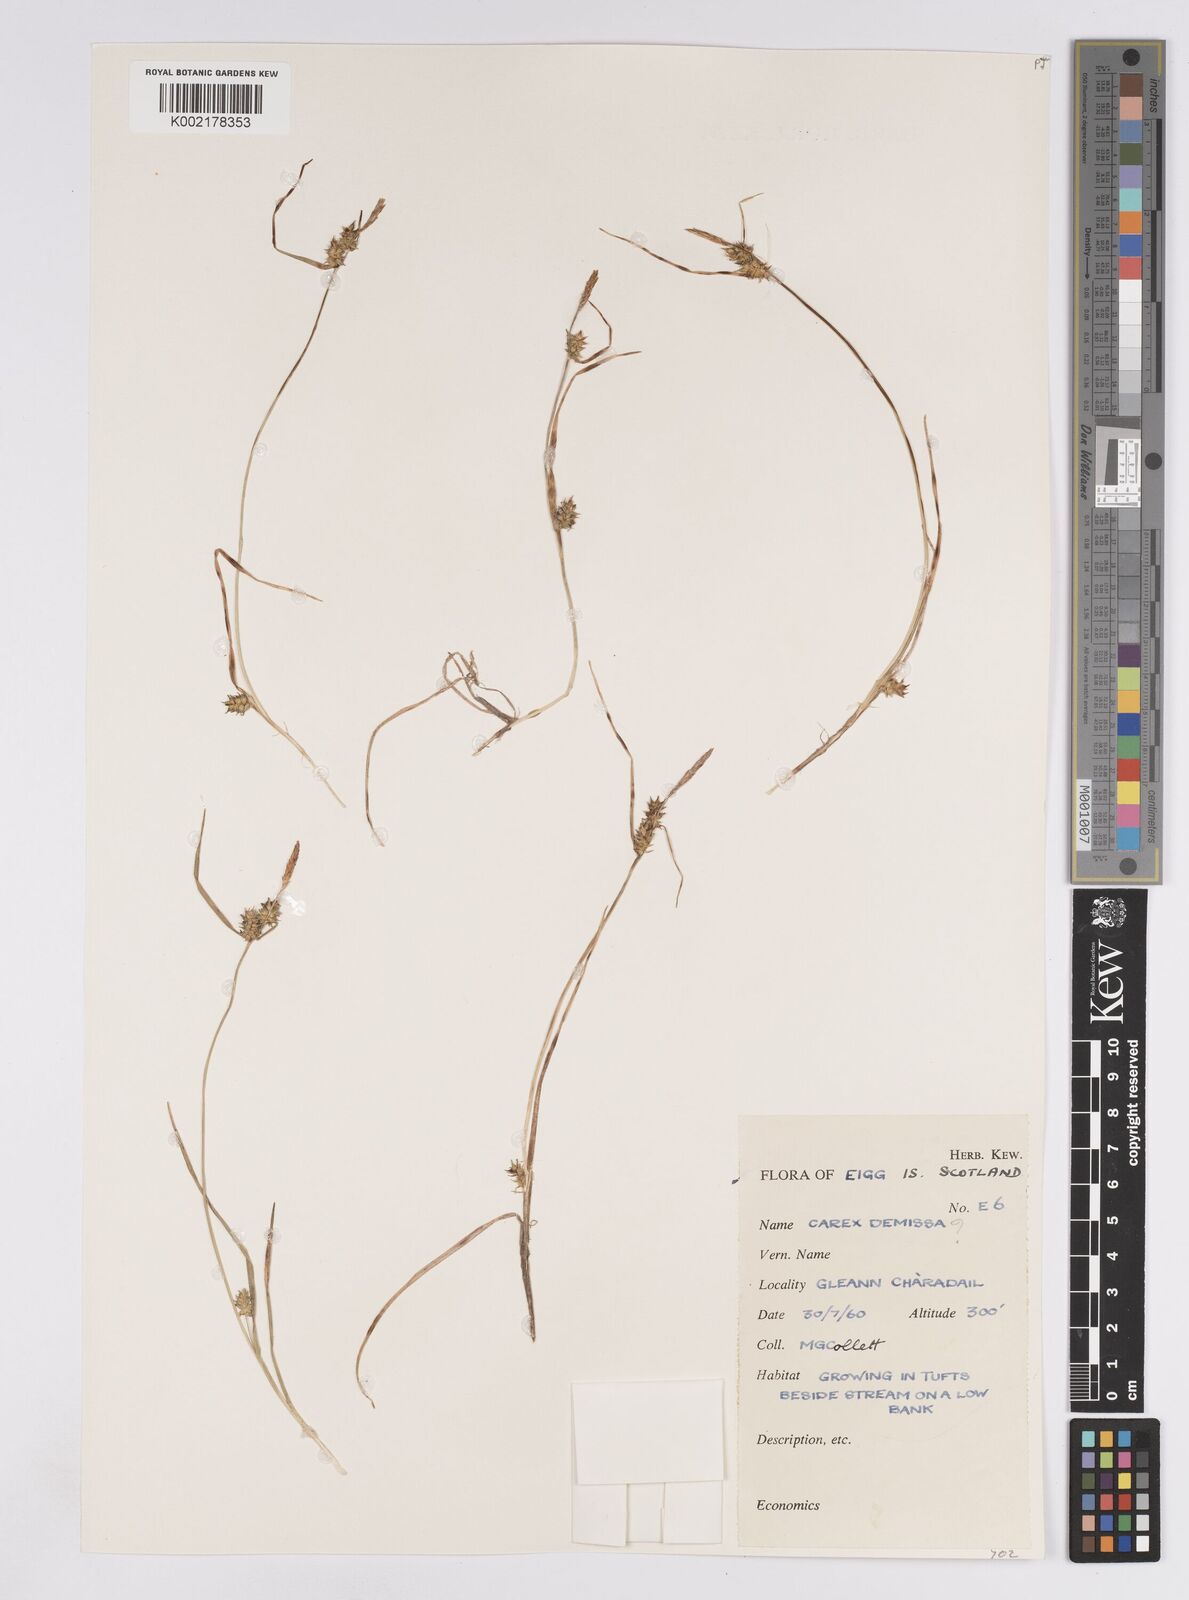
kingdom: Plantae
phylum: Tracheophyta
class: Liliopsida
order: Poales
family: Cyperaceae
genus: Carex
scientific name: Carex demissa
